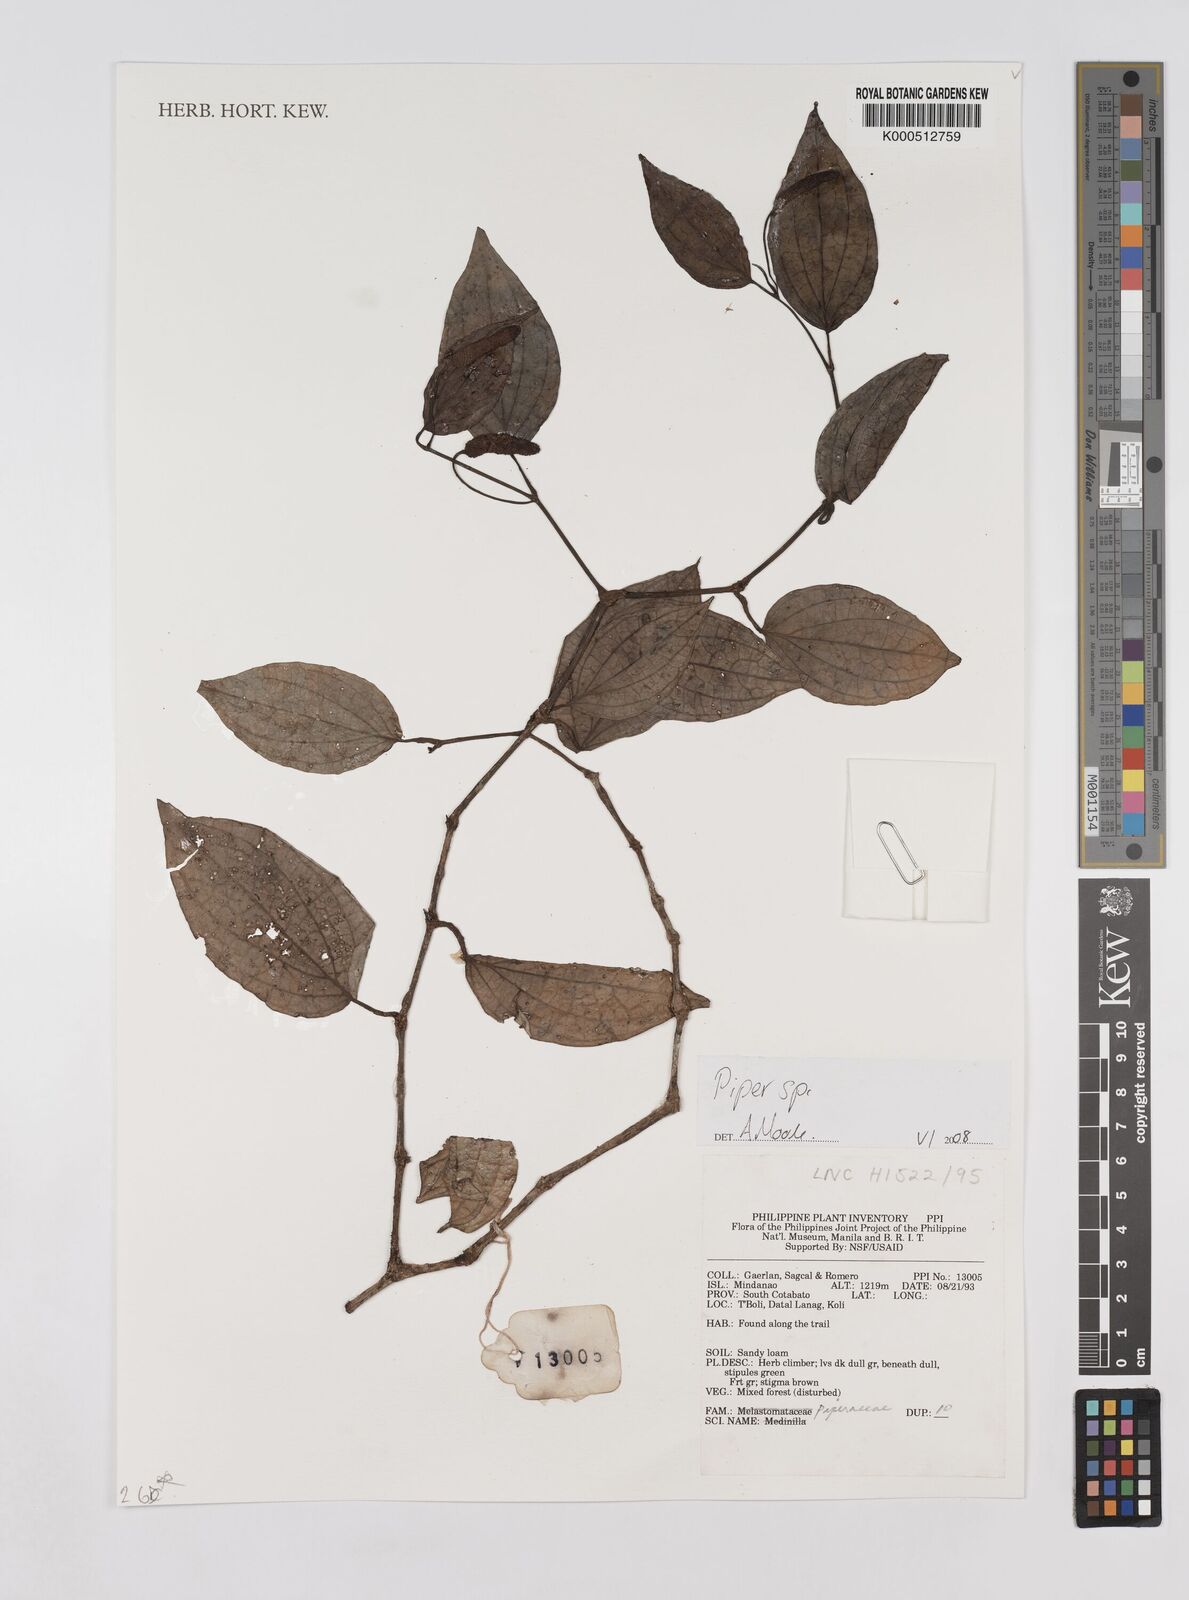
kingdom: Plantae
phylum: Tracheophyta
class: Magnoliopsida
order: Piperales
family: Piperaceae
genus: Piper
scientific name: Piper
